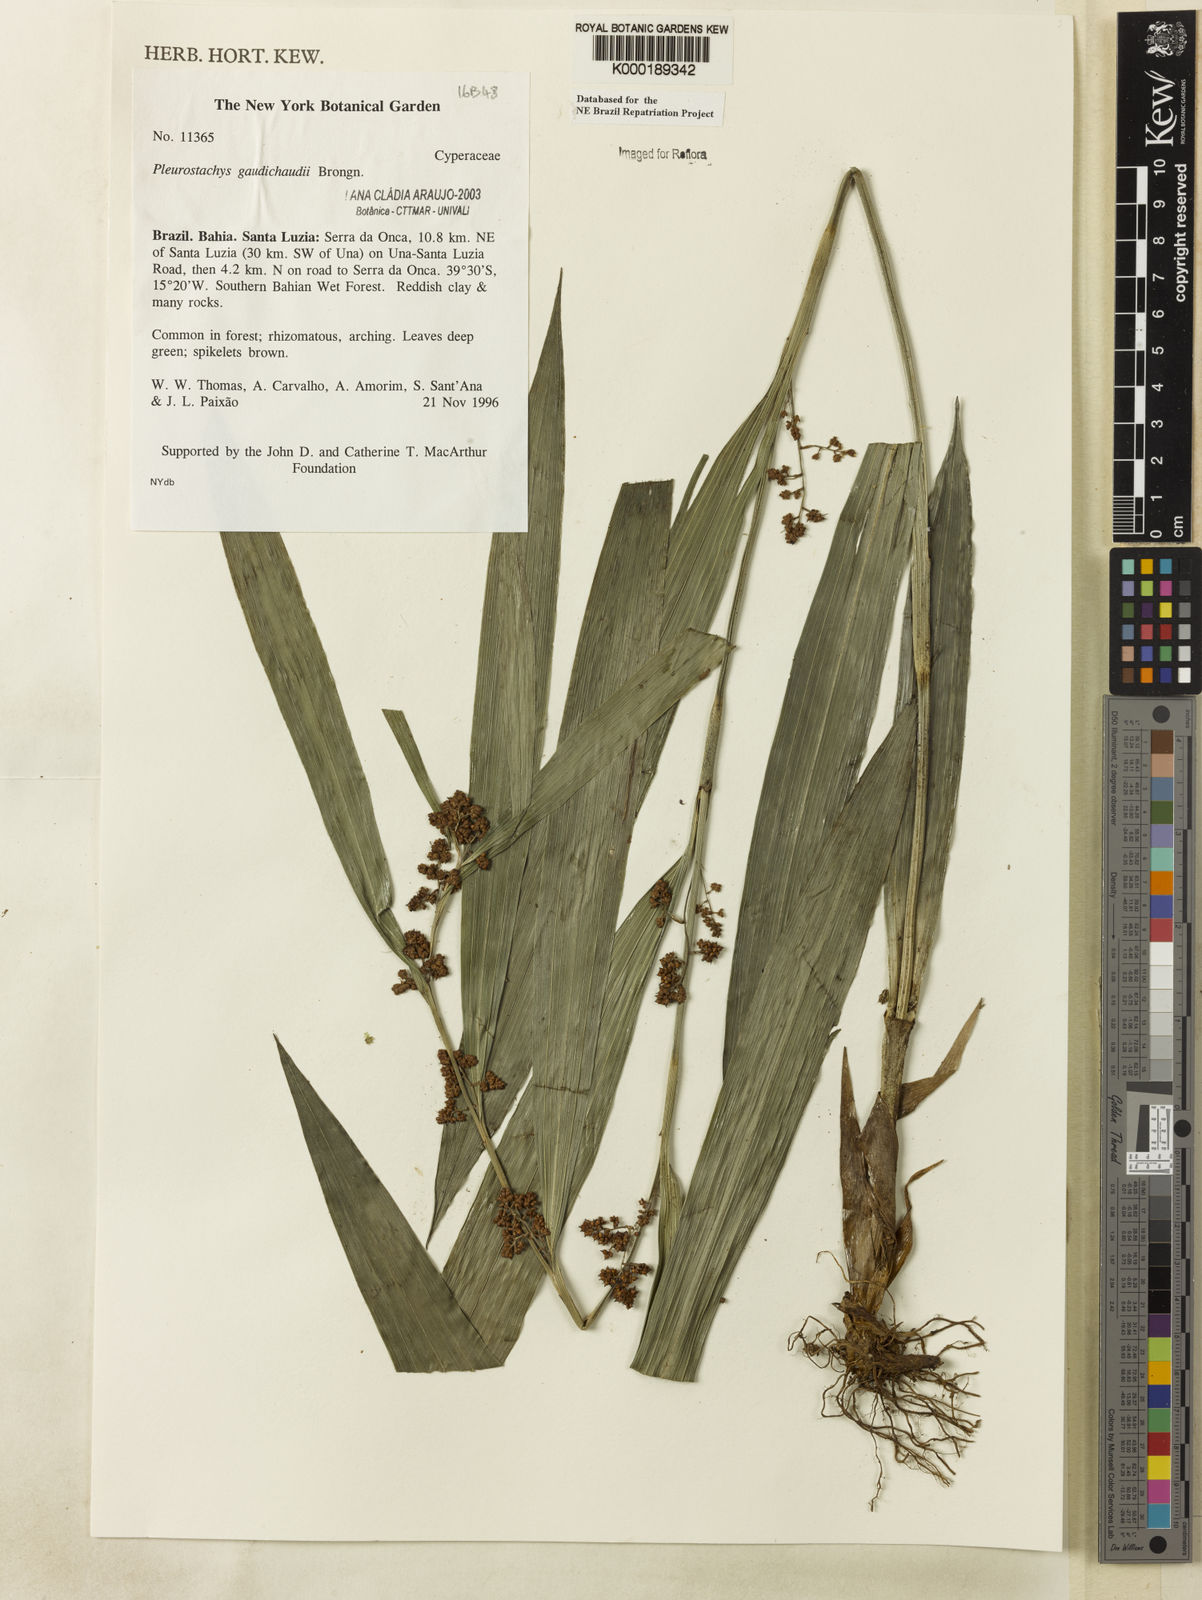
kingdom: Plantae
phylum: Tracheophyta
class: Liliopsida
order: Poales
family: Cyperaceae
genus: Rhynchospora
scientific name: Rhynchospora gaudichaudii
